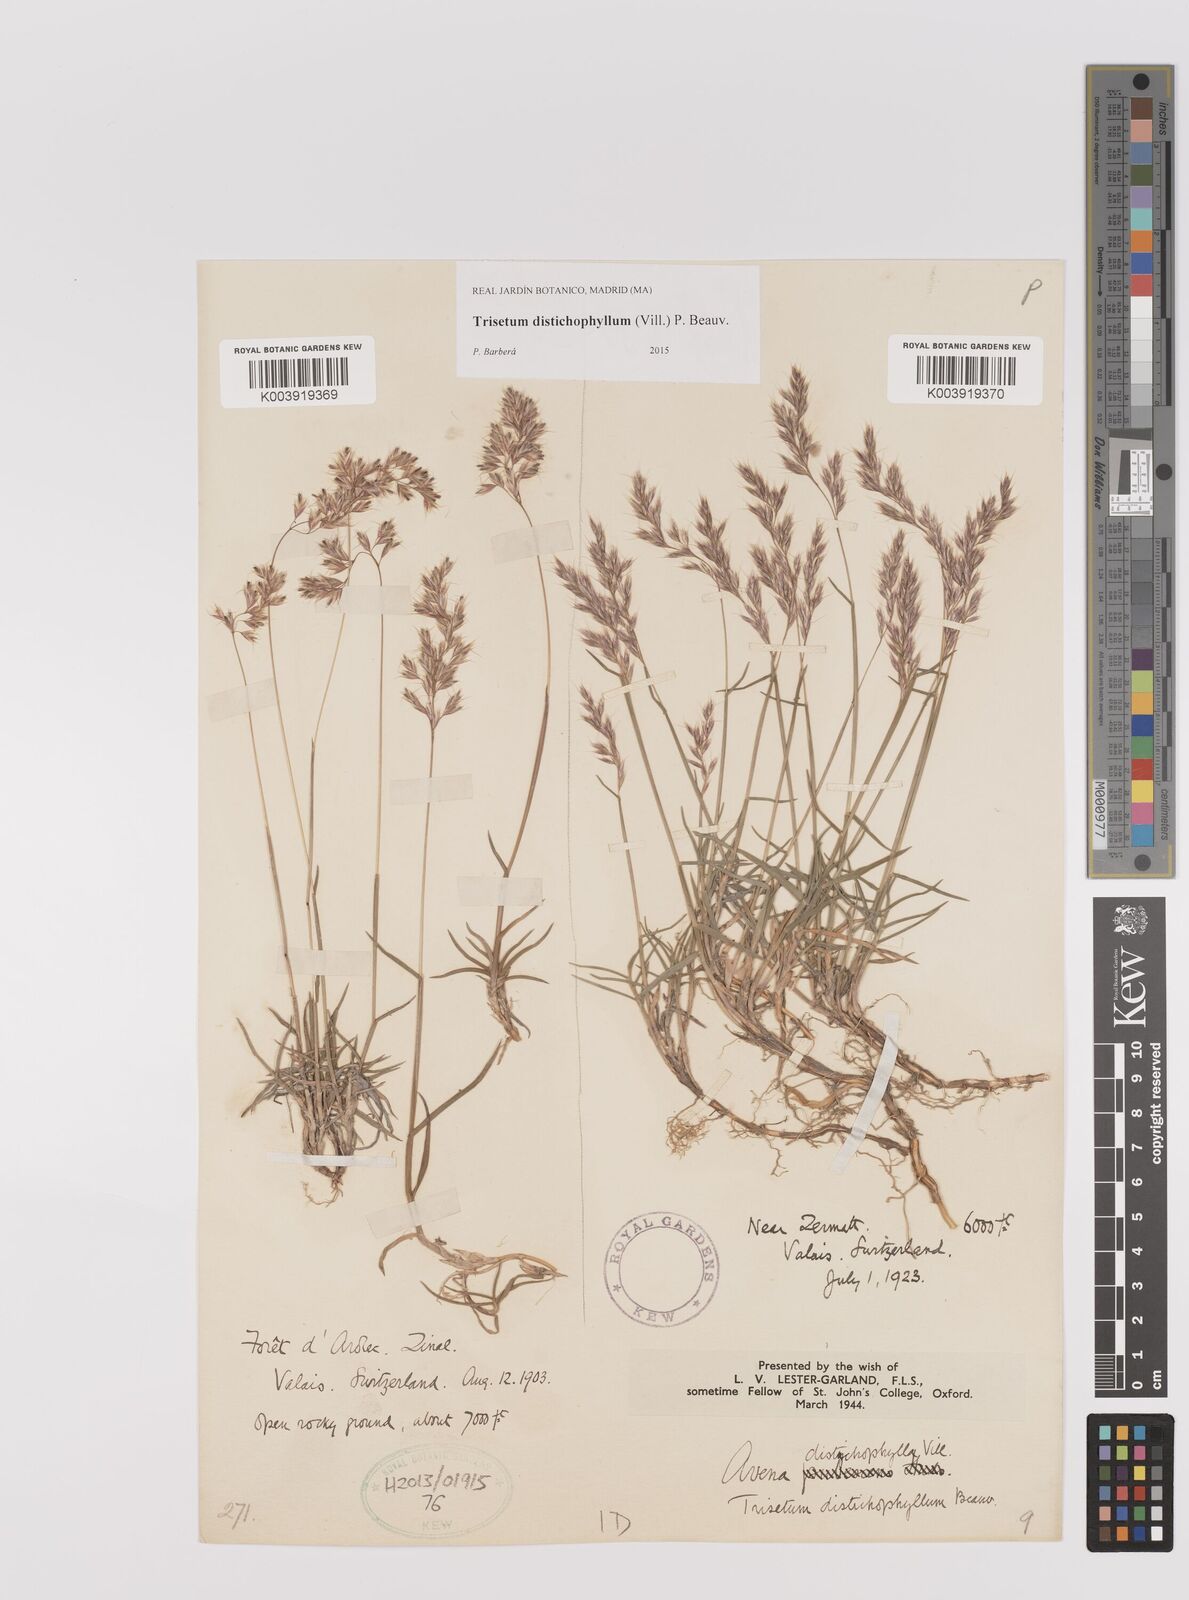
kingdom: Plantae
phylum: Tracheophyta
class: Liliopsida
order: Poales
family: Poaceae
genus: Acrospelion
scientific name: Acrospelion distichophyllum
